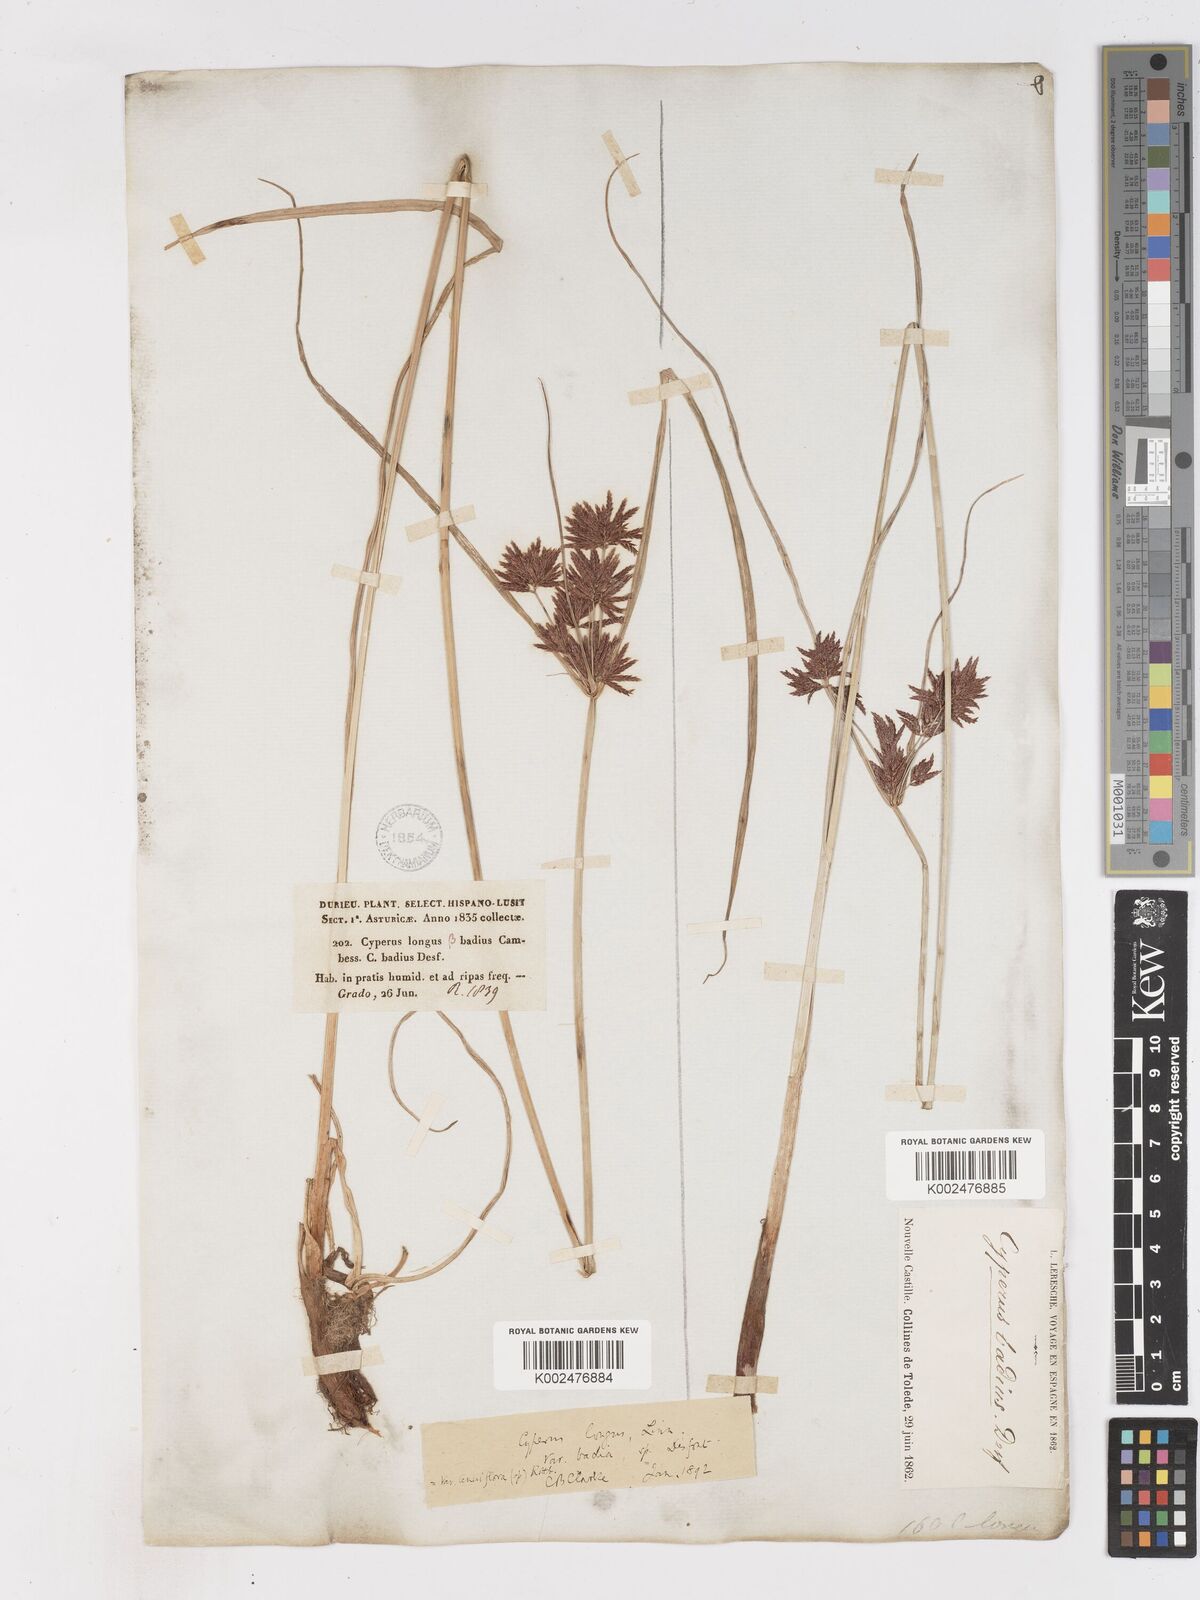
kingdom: Plantae
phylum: Tracheophyta
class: Liliopsida
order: Poales
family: Cyperaceae
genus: Cyperus
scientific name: Cyperus longus
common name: Galingale
